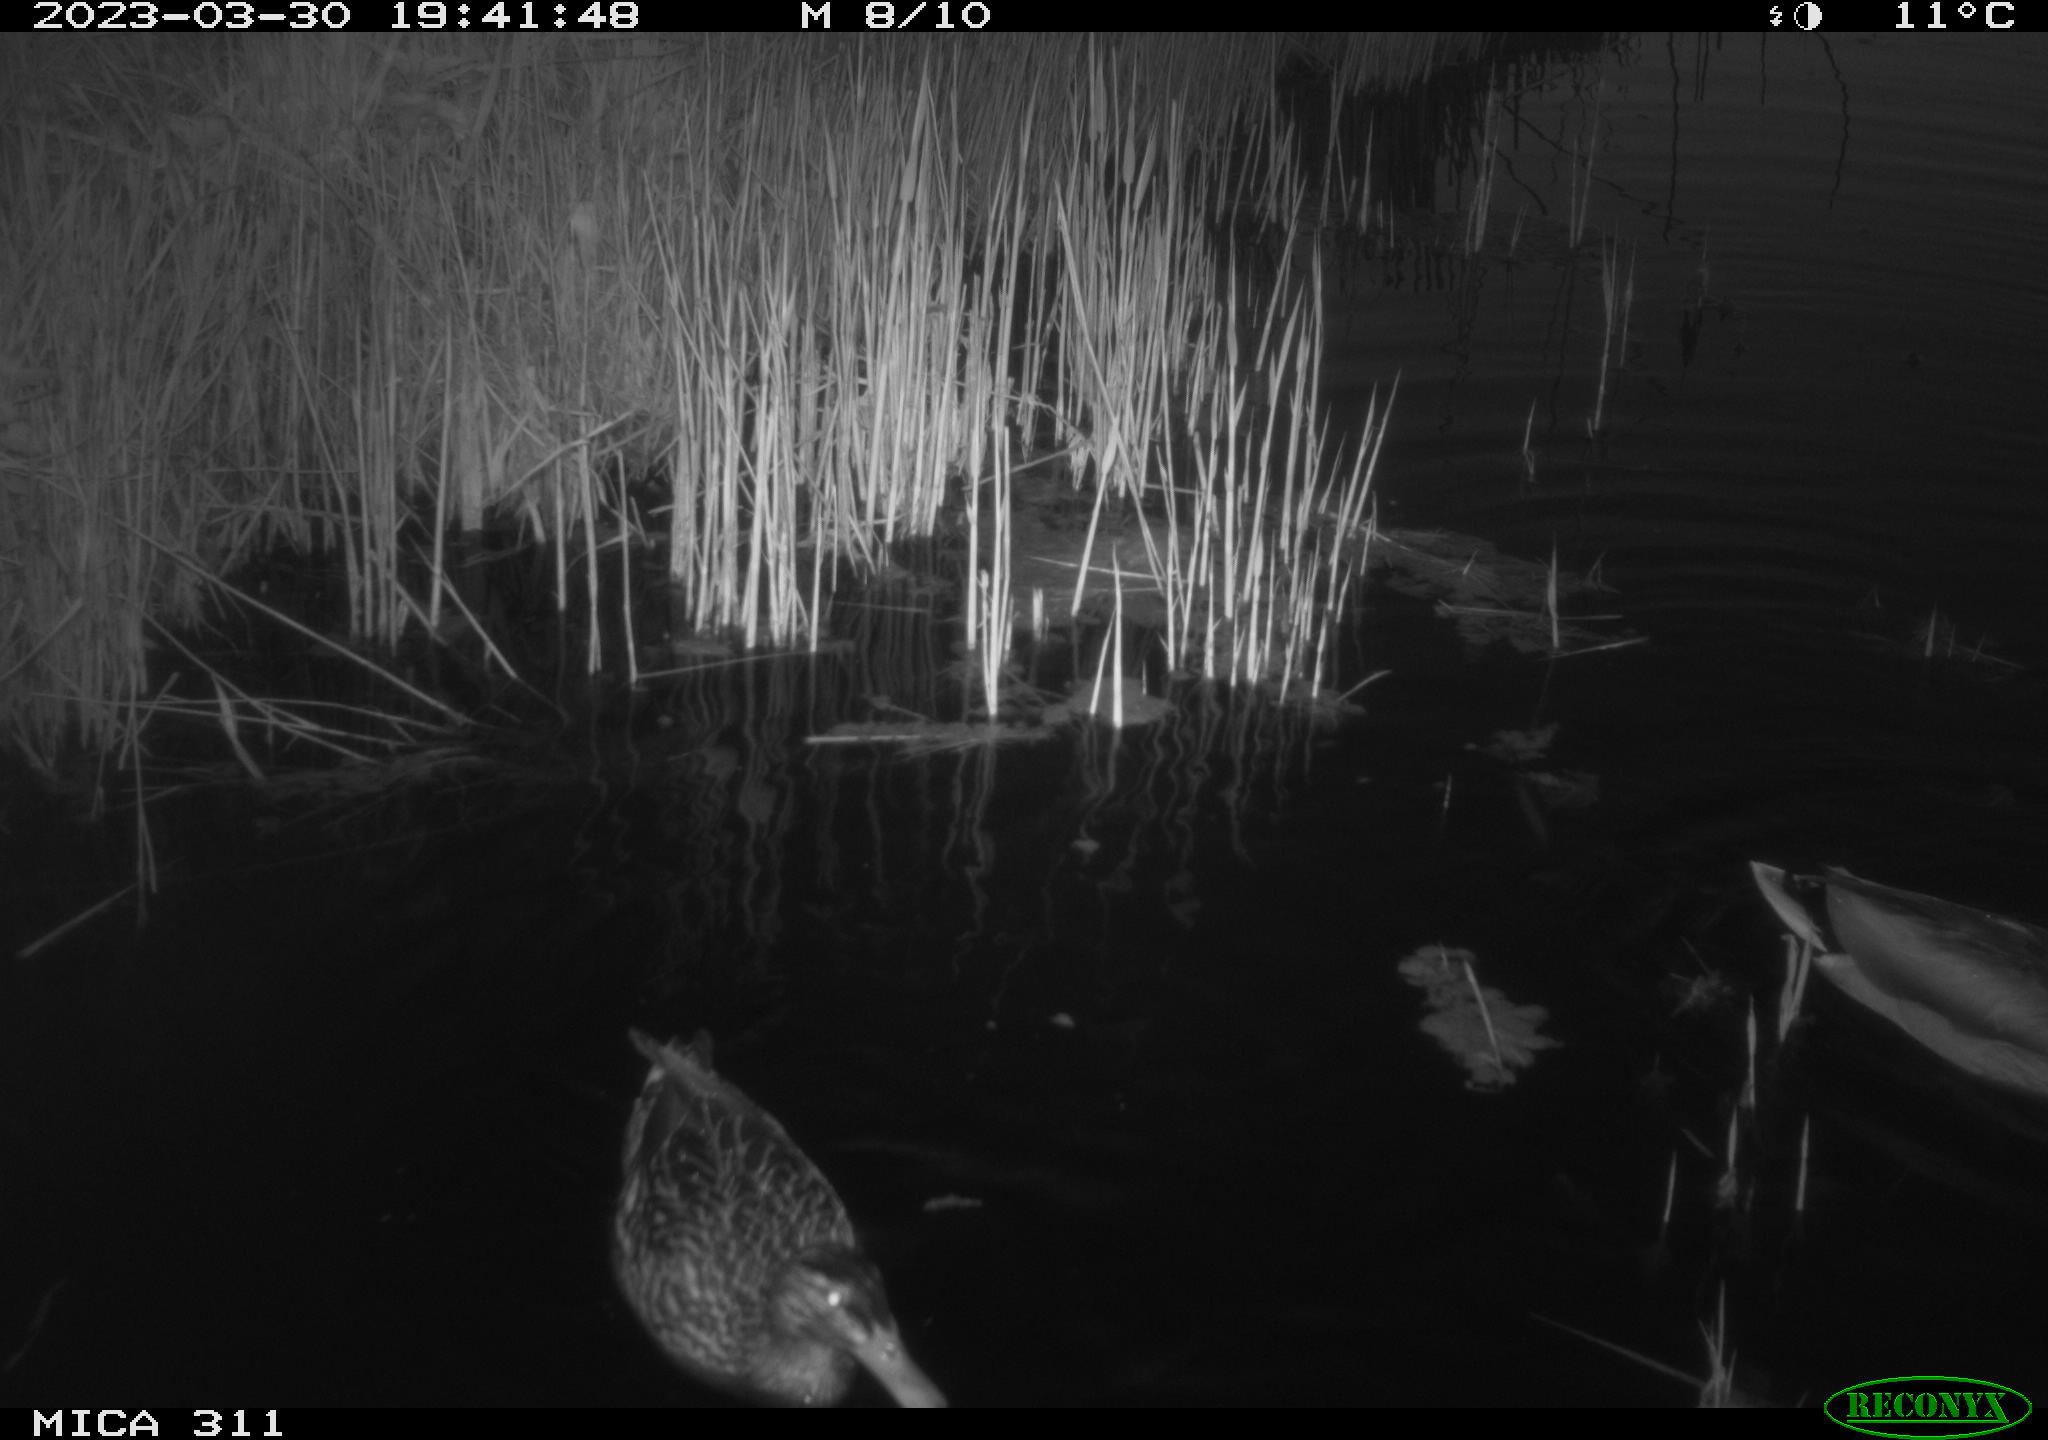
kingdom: Animalia
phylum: Chordata
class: Aves
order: Anseriformes
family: Anatidae
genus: Anas
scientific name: Anas
